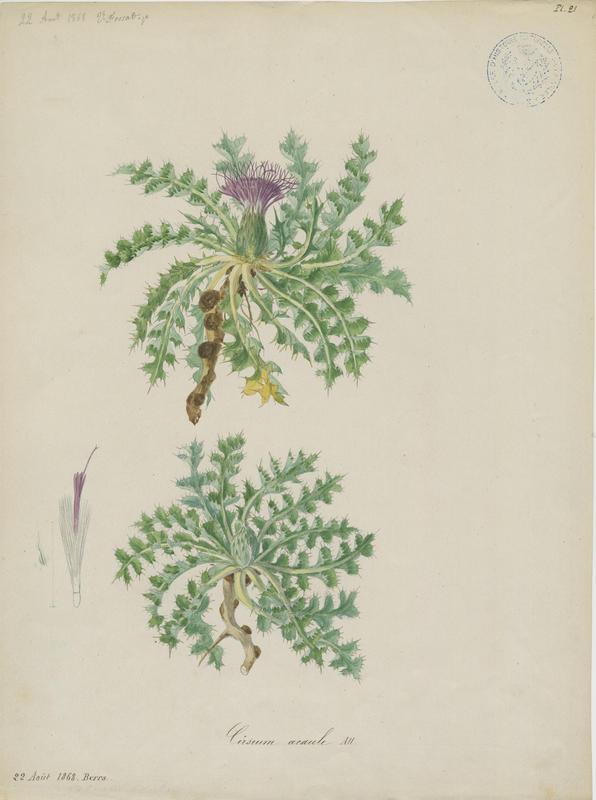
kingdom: Plantae
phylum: Tracheophyta
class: Magnoliopsida
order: Asterales
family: Asteraceae
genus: Cirsium
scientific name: Cirsium acaule
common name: Dwarf thistle
